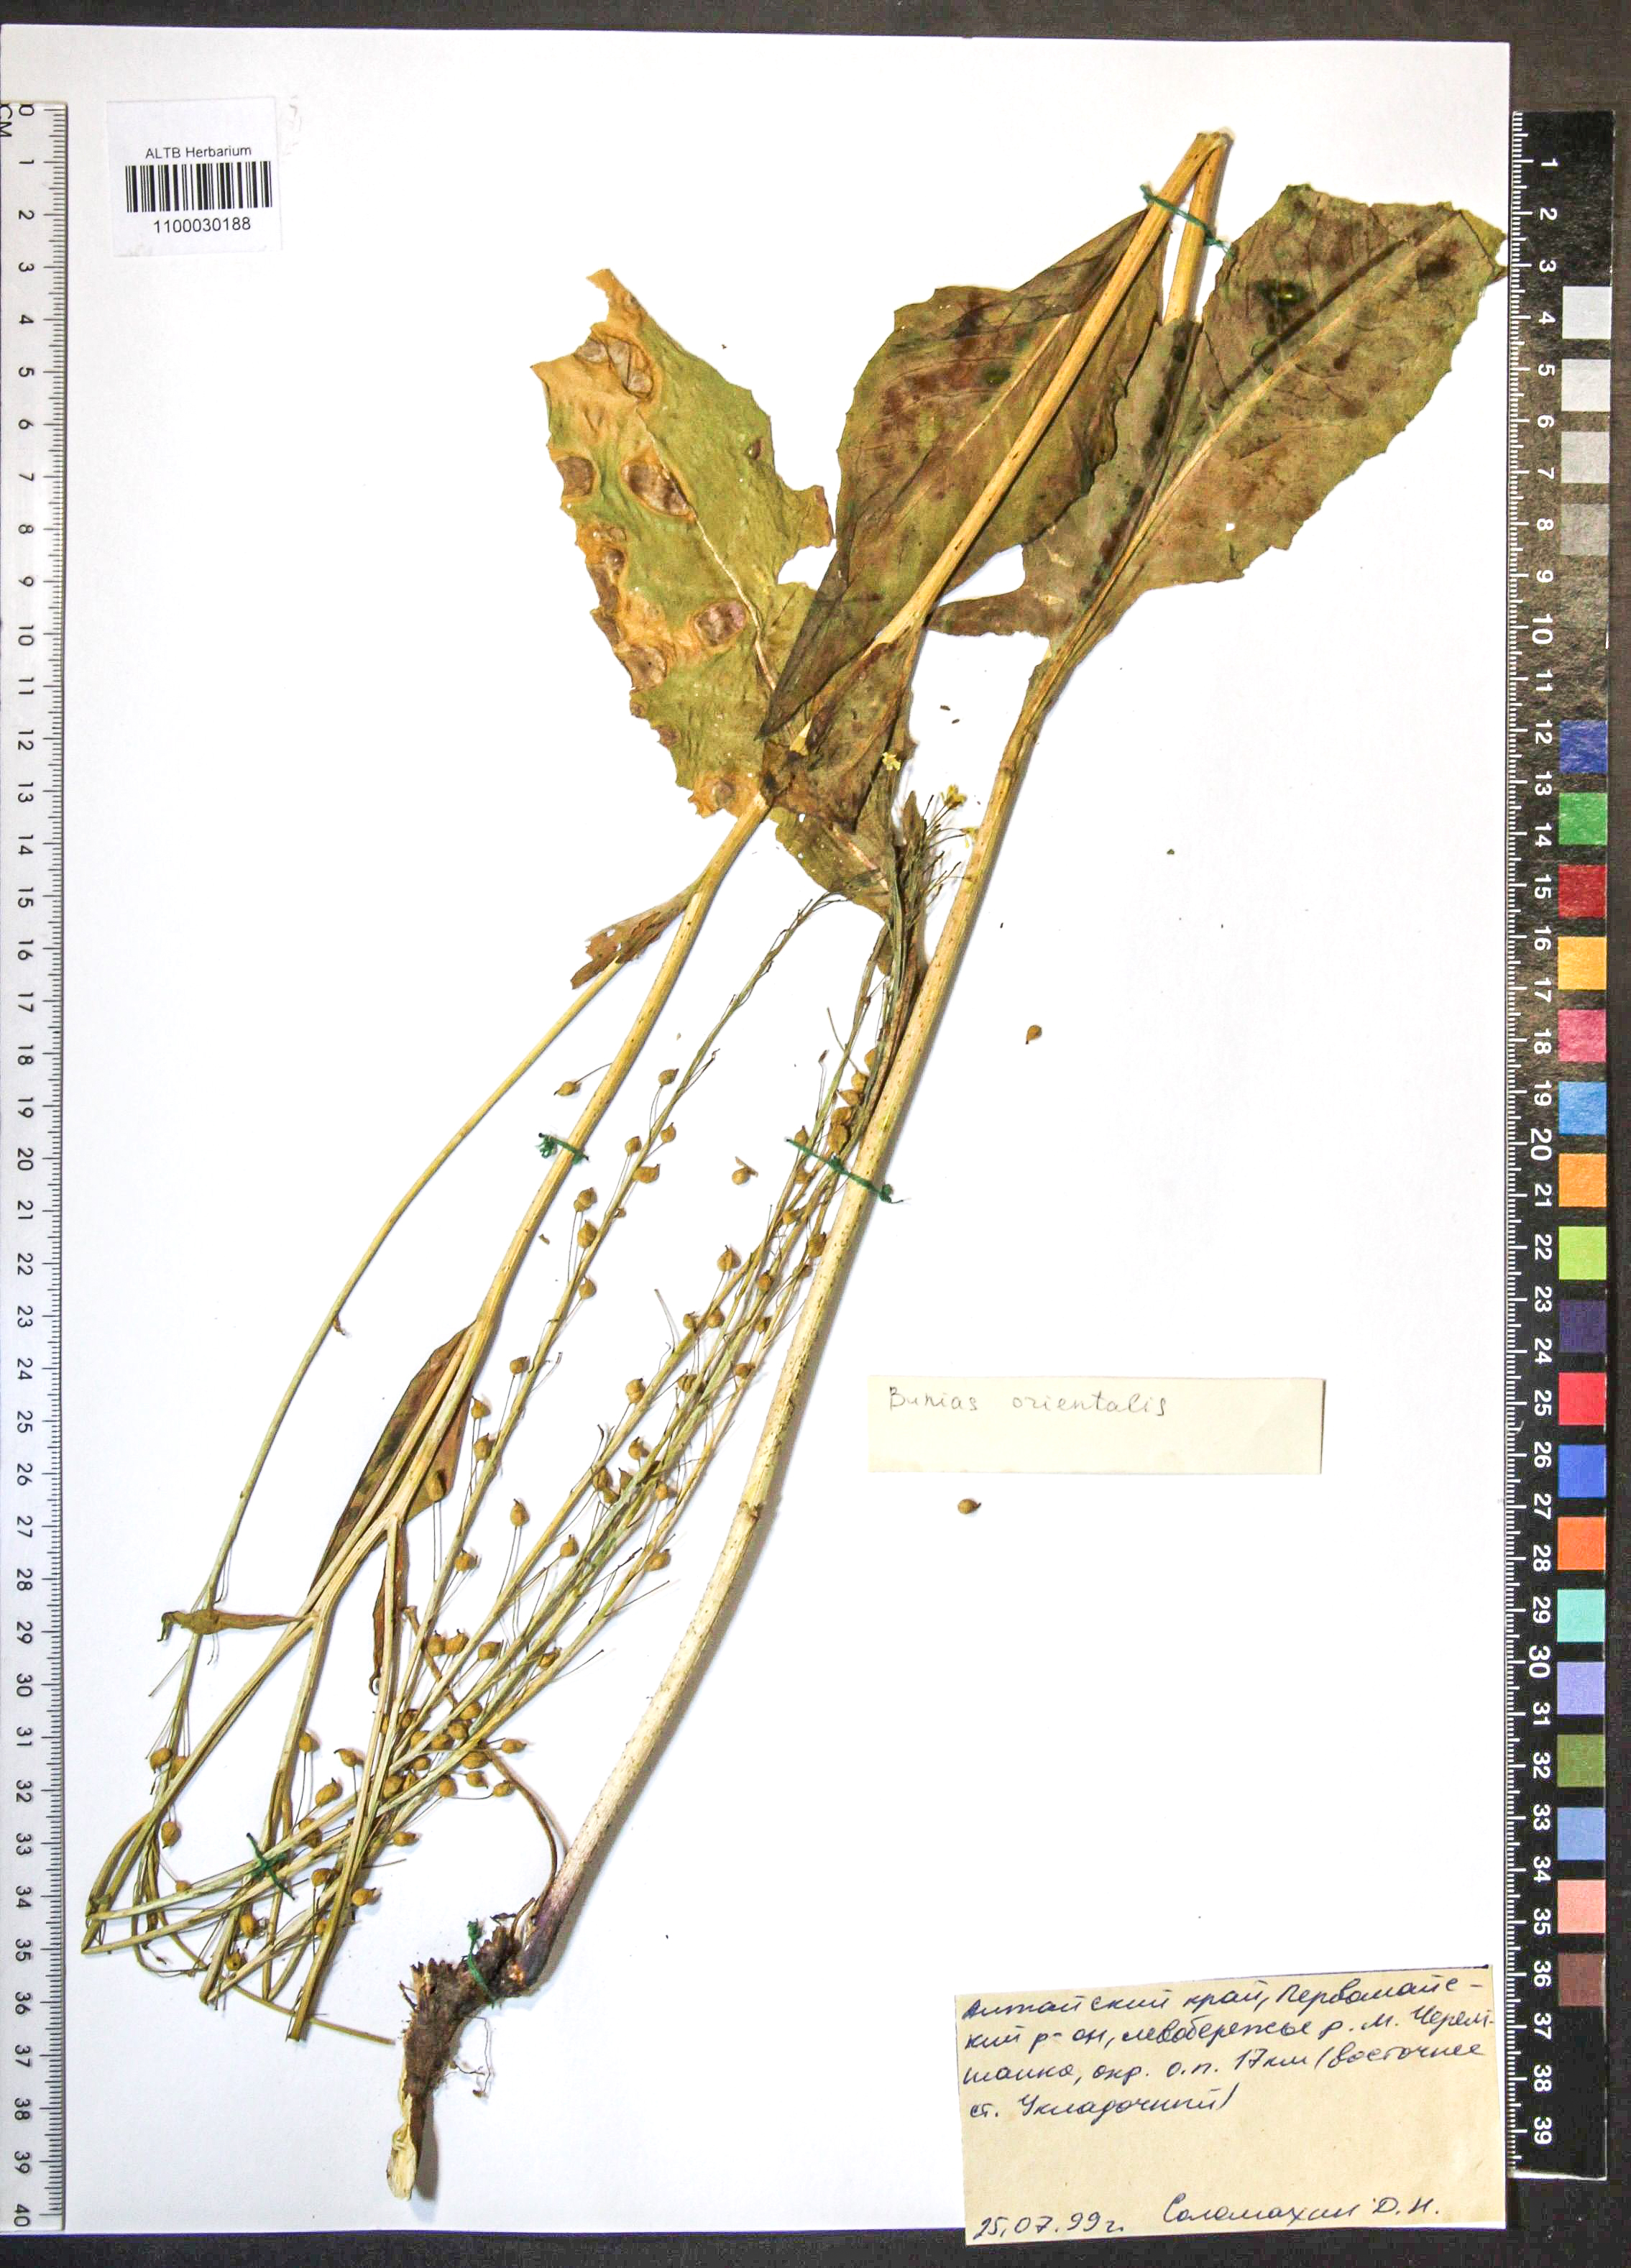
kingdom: Plantae
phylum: Tracheophyta
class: Magnoliopsida
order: Brassicales
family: Brassicaceae
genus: Bunias
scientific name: Bunias orientalis
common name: Warty-cabbage
